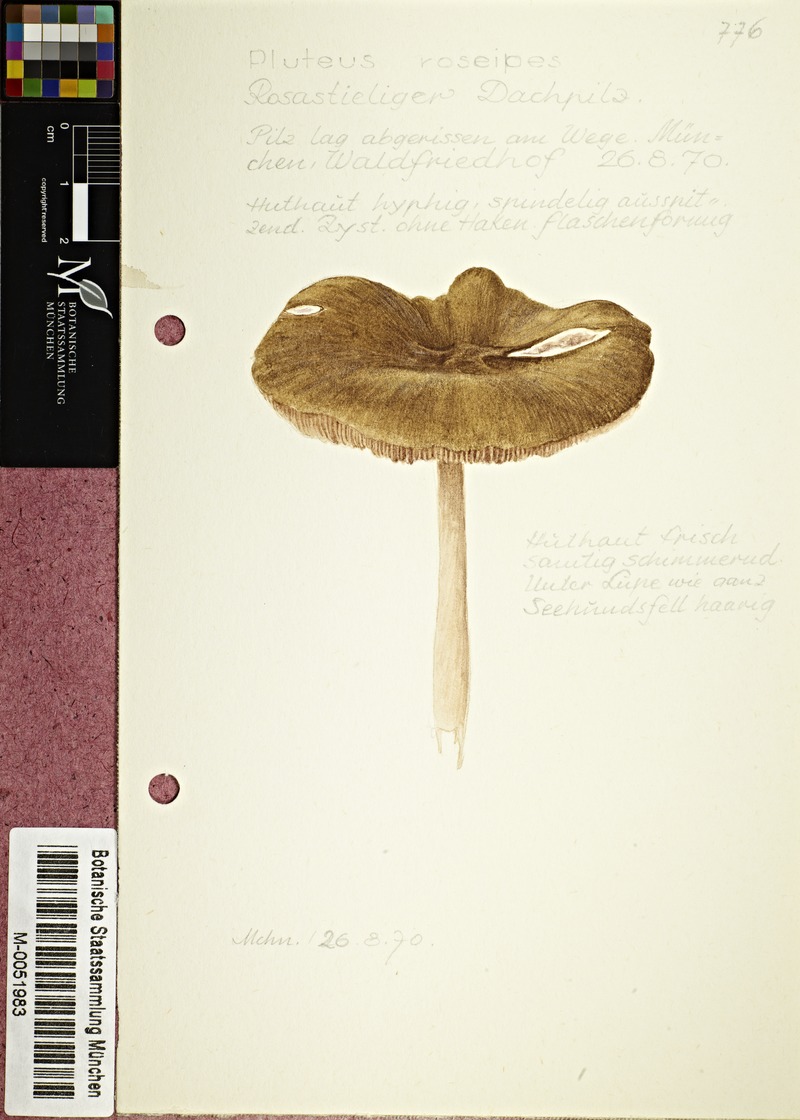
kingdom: Fungi
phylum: Basidiomycota
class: Agaricomycetes
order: Agaricales
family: Pluteaceae
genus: Pluteus
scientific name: Pluteus roseipes
